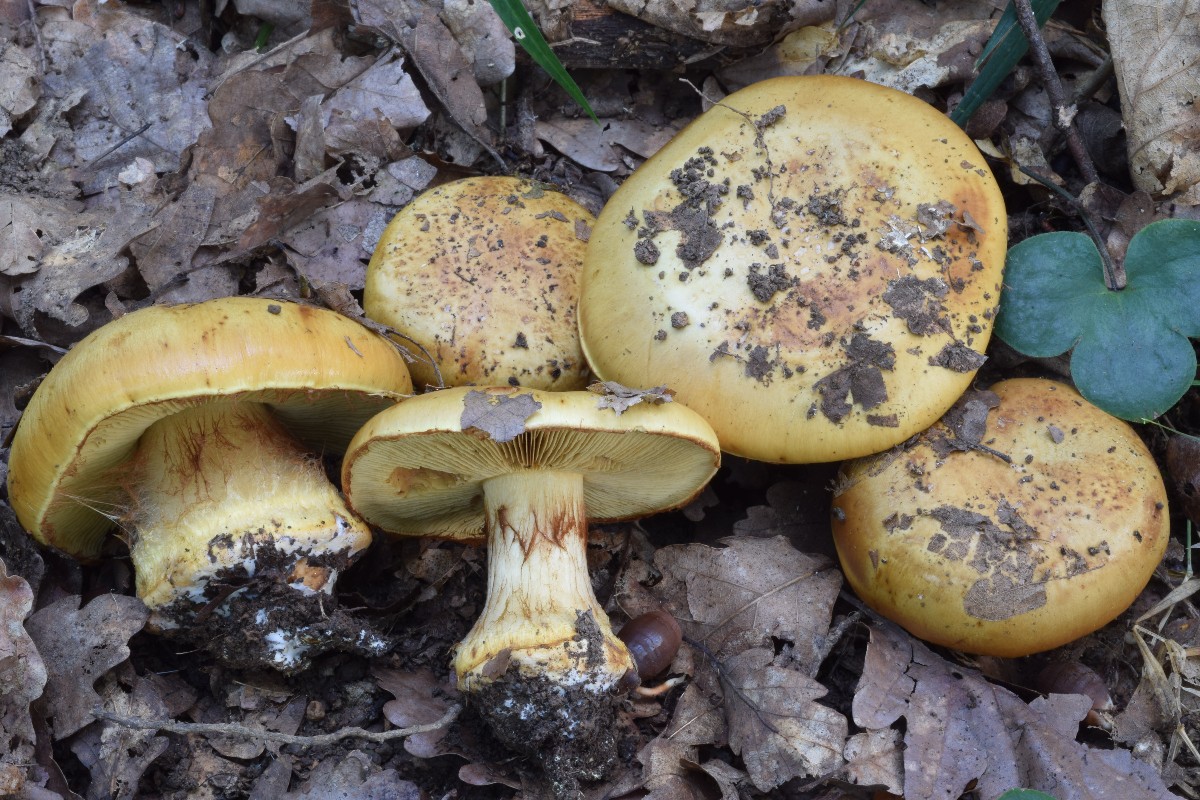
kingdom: Fungi
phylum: Basidiomycota
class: Agaricomycetes
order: Agaricales
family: Cortinariaceae
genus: Calonarius
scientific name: Calonarius quercilicis
